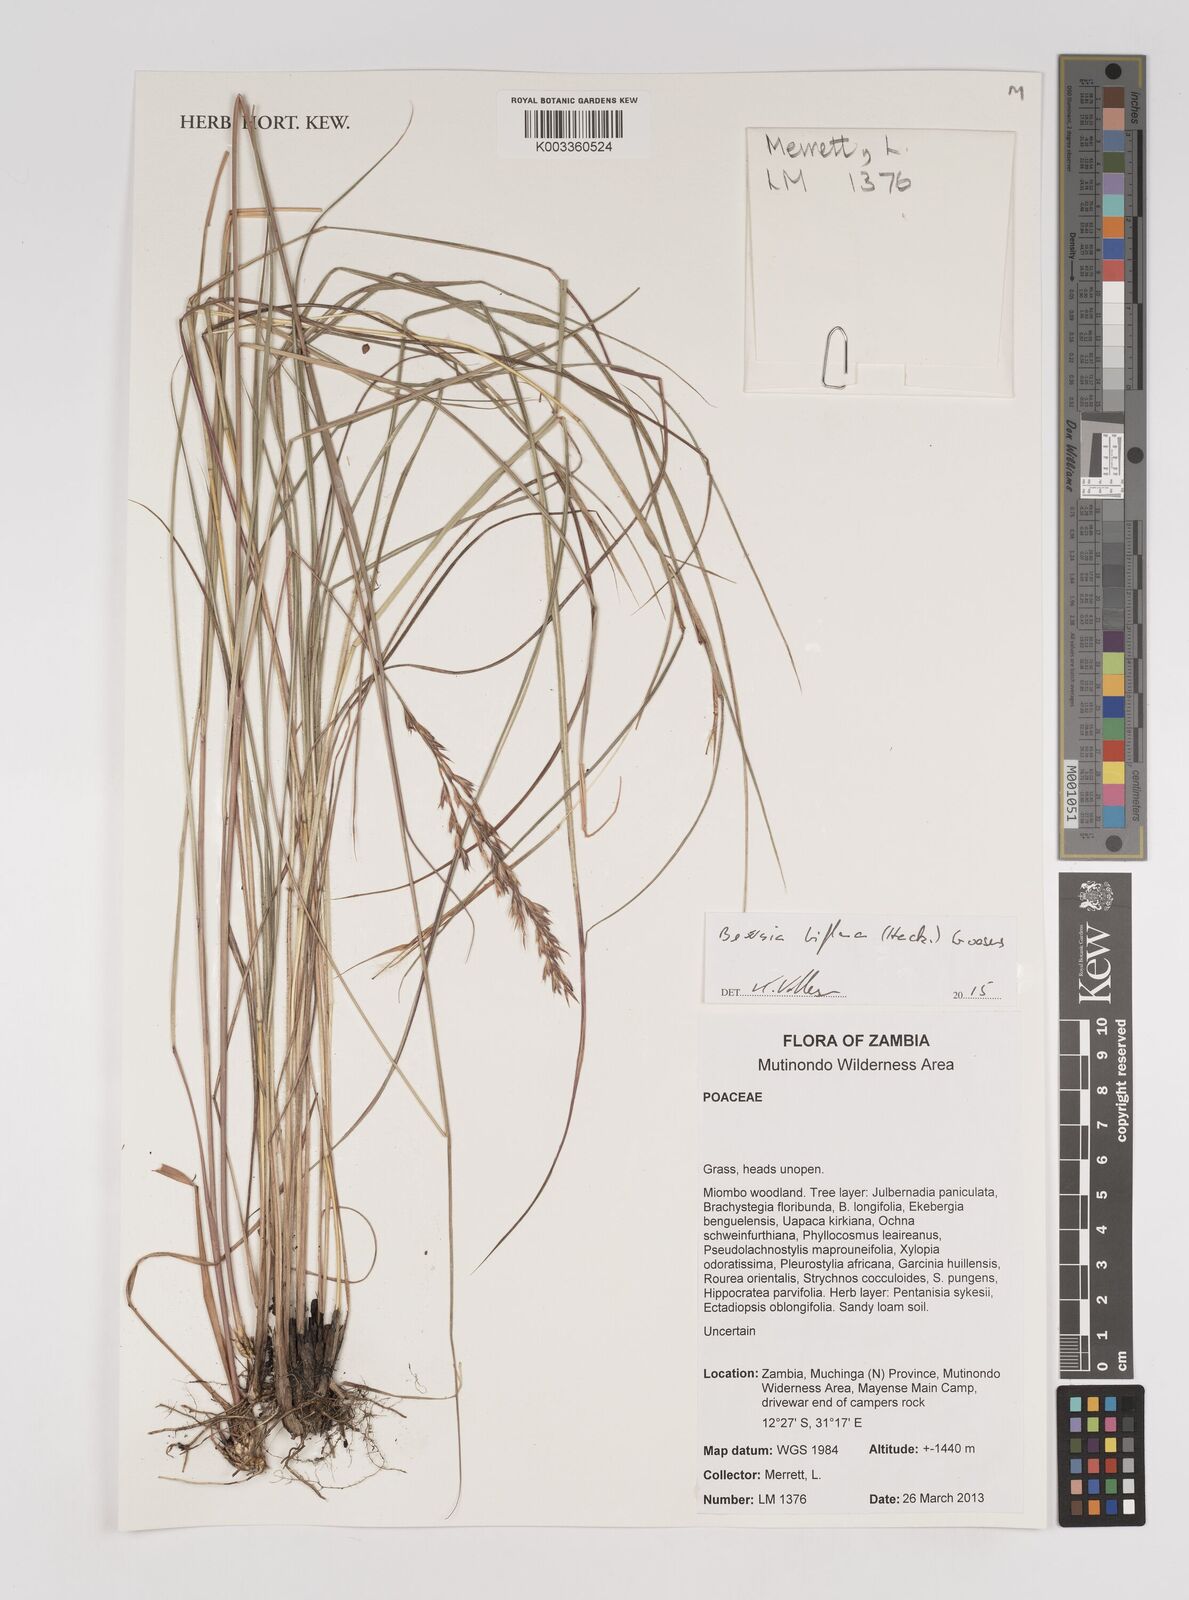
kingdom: Plantae
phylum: Tracheophyta
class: Liliopsida
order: Poales
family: Poaceae
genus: Bewsia
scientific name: Bewsia biflora
